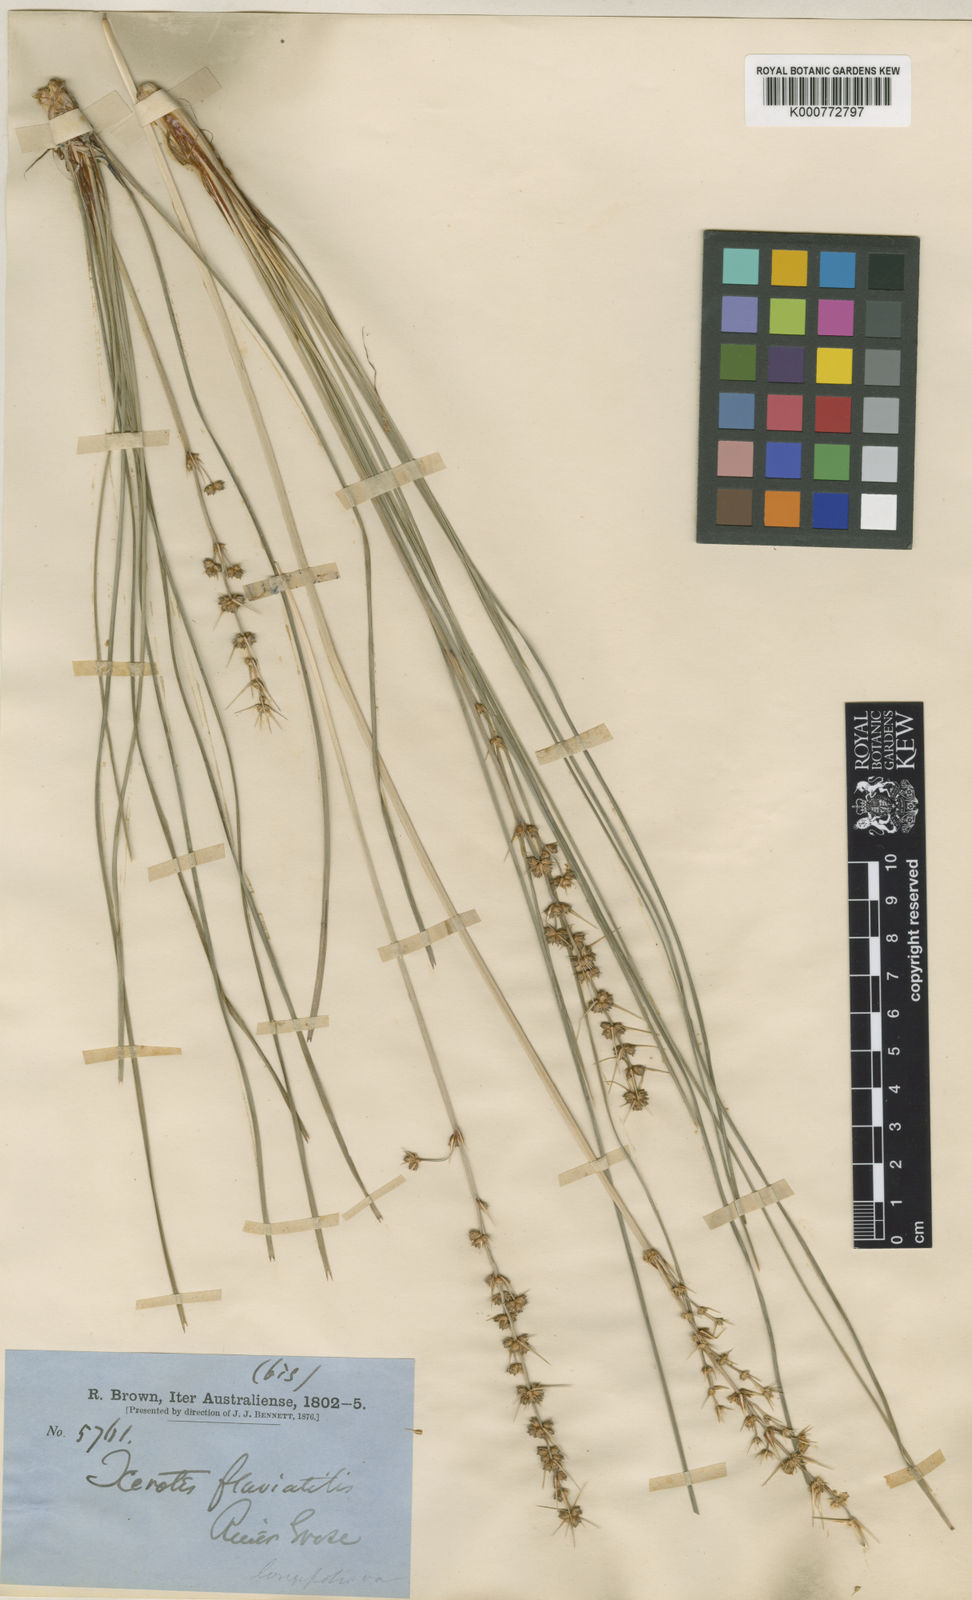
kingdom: Plantae
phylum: Tracheophyta
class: Liliopsida
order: Asparagales
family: Asparagaceae
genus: Lomandra
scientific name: Lomandra longifolia
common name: Longleaf mat-rush
